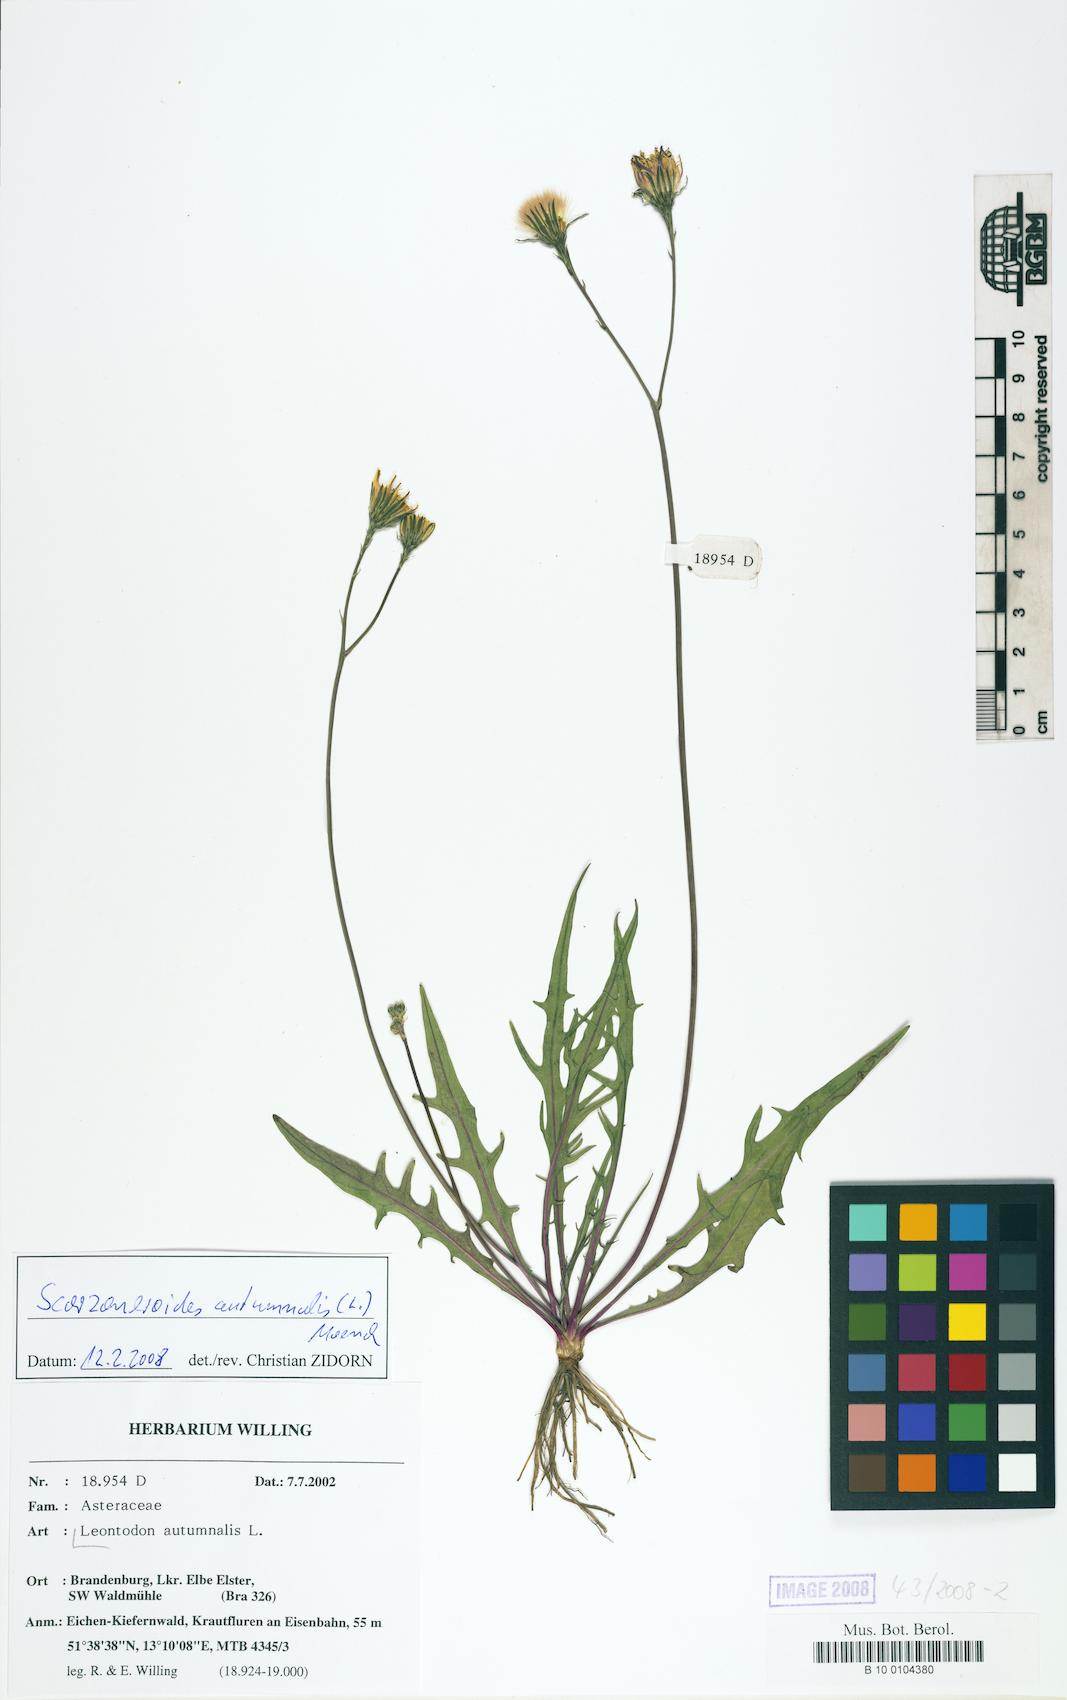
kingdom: Plantae
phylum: Tracheophyta
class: Magnoliopsida
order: Asterales
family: Asteraceae
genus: Scorzoneroides
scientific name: Scorzoneroides autumnalis
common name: Autumn hawkbit
